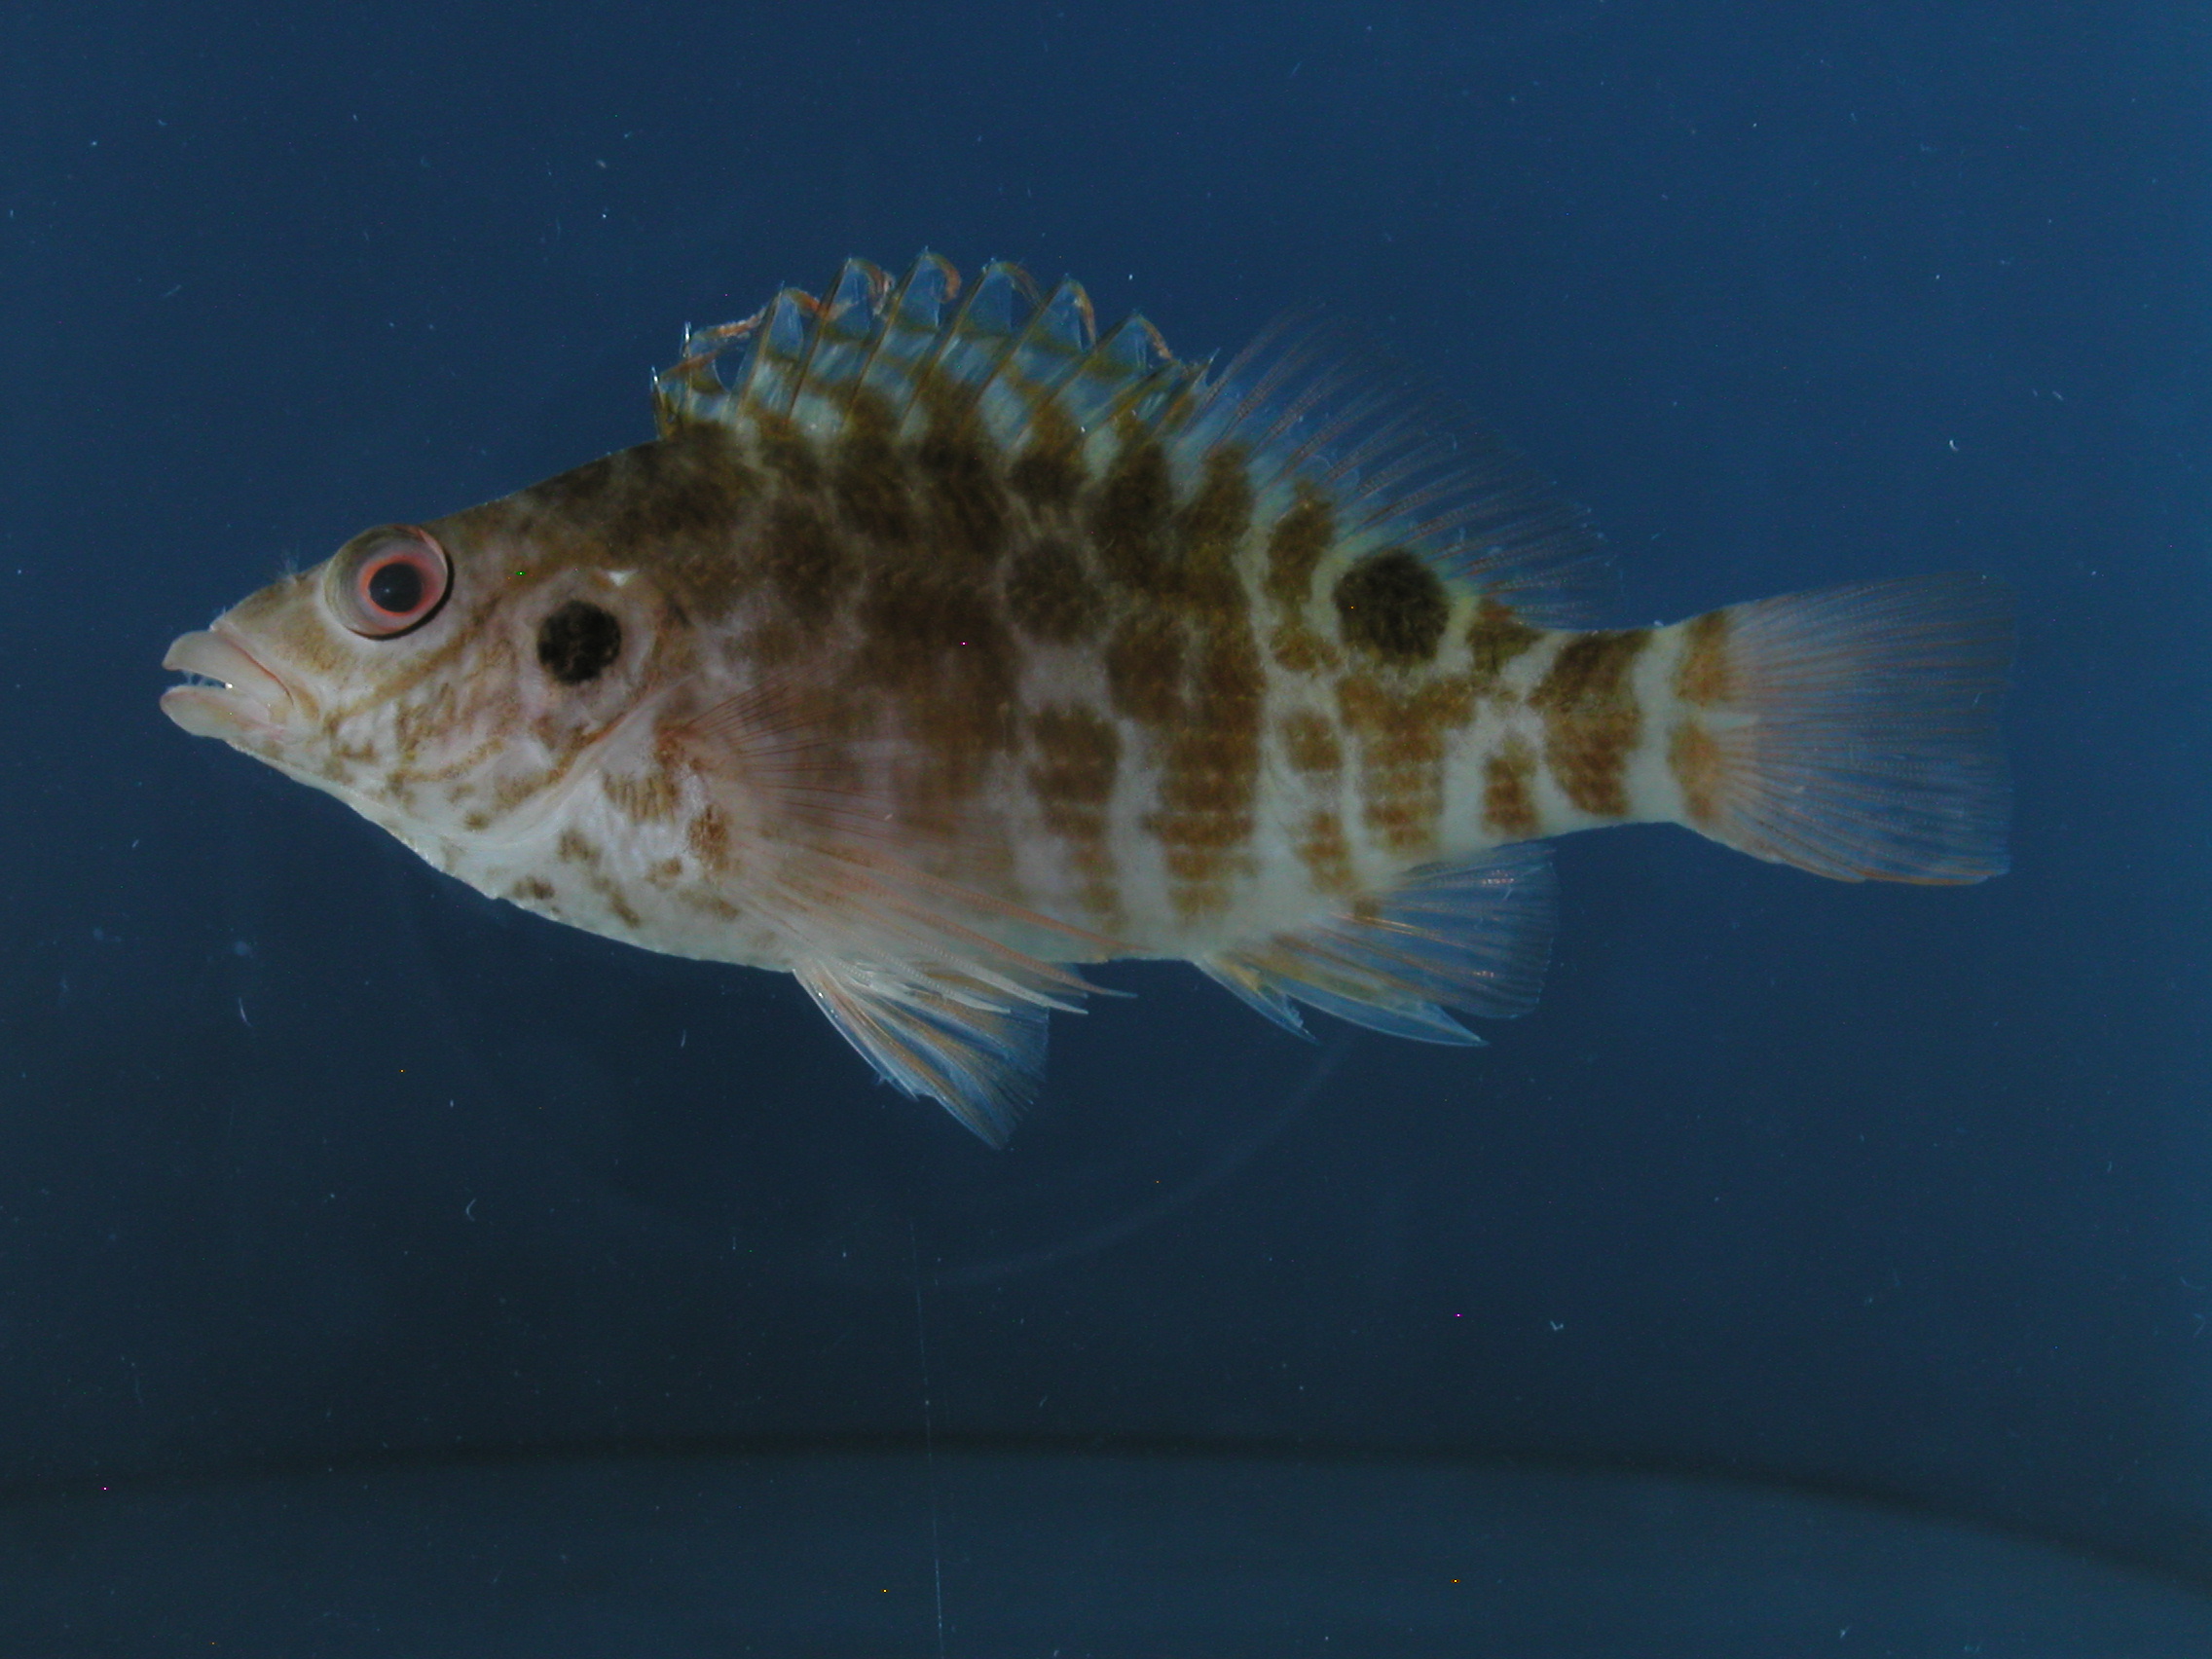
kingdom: Animalia
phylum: Chordata
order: Perciformes
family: Cirrhitidae
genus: Amblycirrhitus
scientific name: Amblycirrhitus bimacula
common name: Twinspot hawkfish
